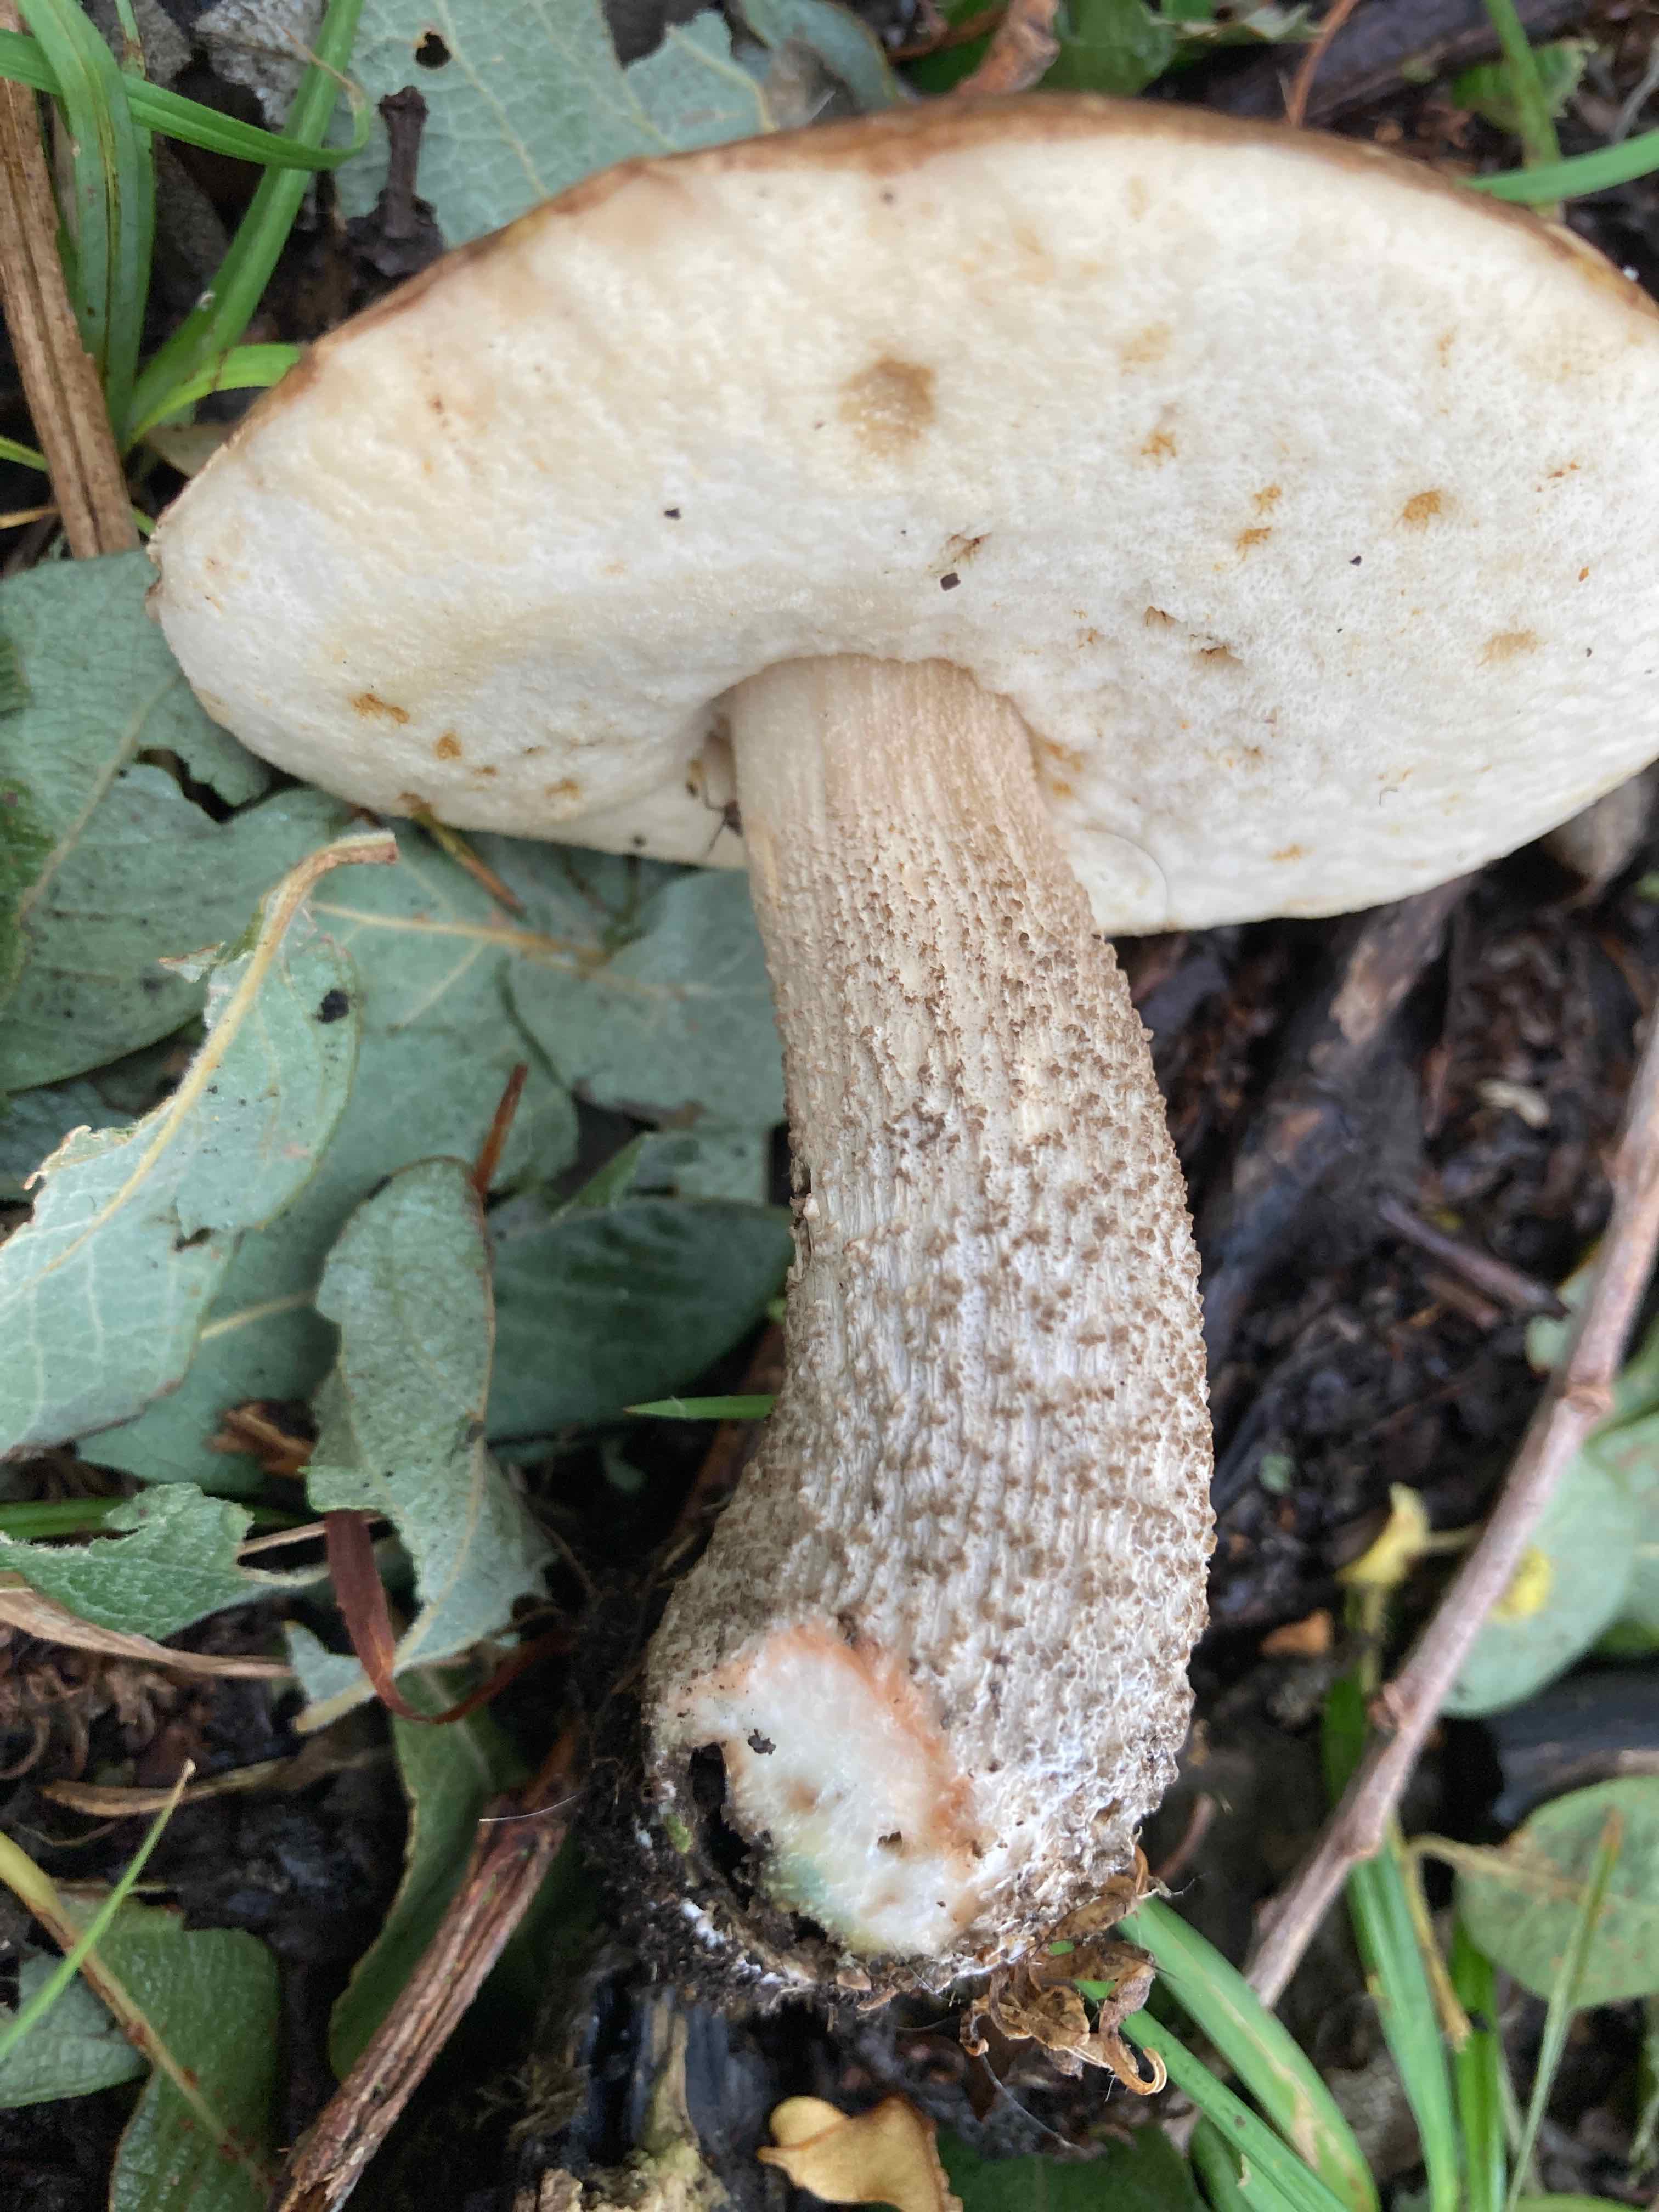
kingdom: Fungi
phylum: Basidiomycota
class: Agaricomycetes
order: Boletales
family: Boletaceae
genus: Leccinum
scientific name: Leccinum cyaneobasileucum
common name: almindelig skælrørhat
